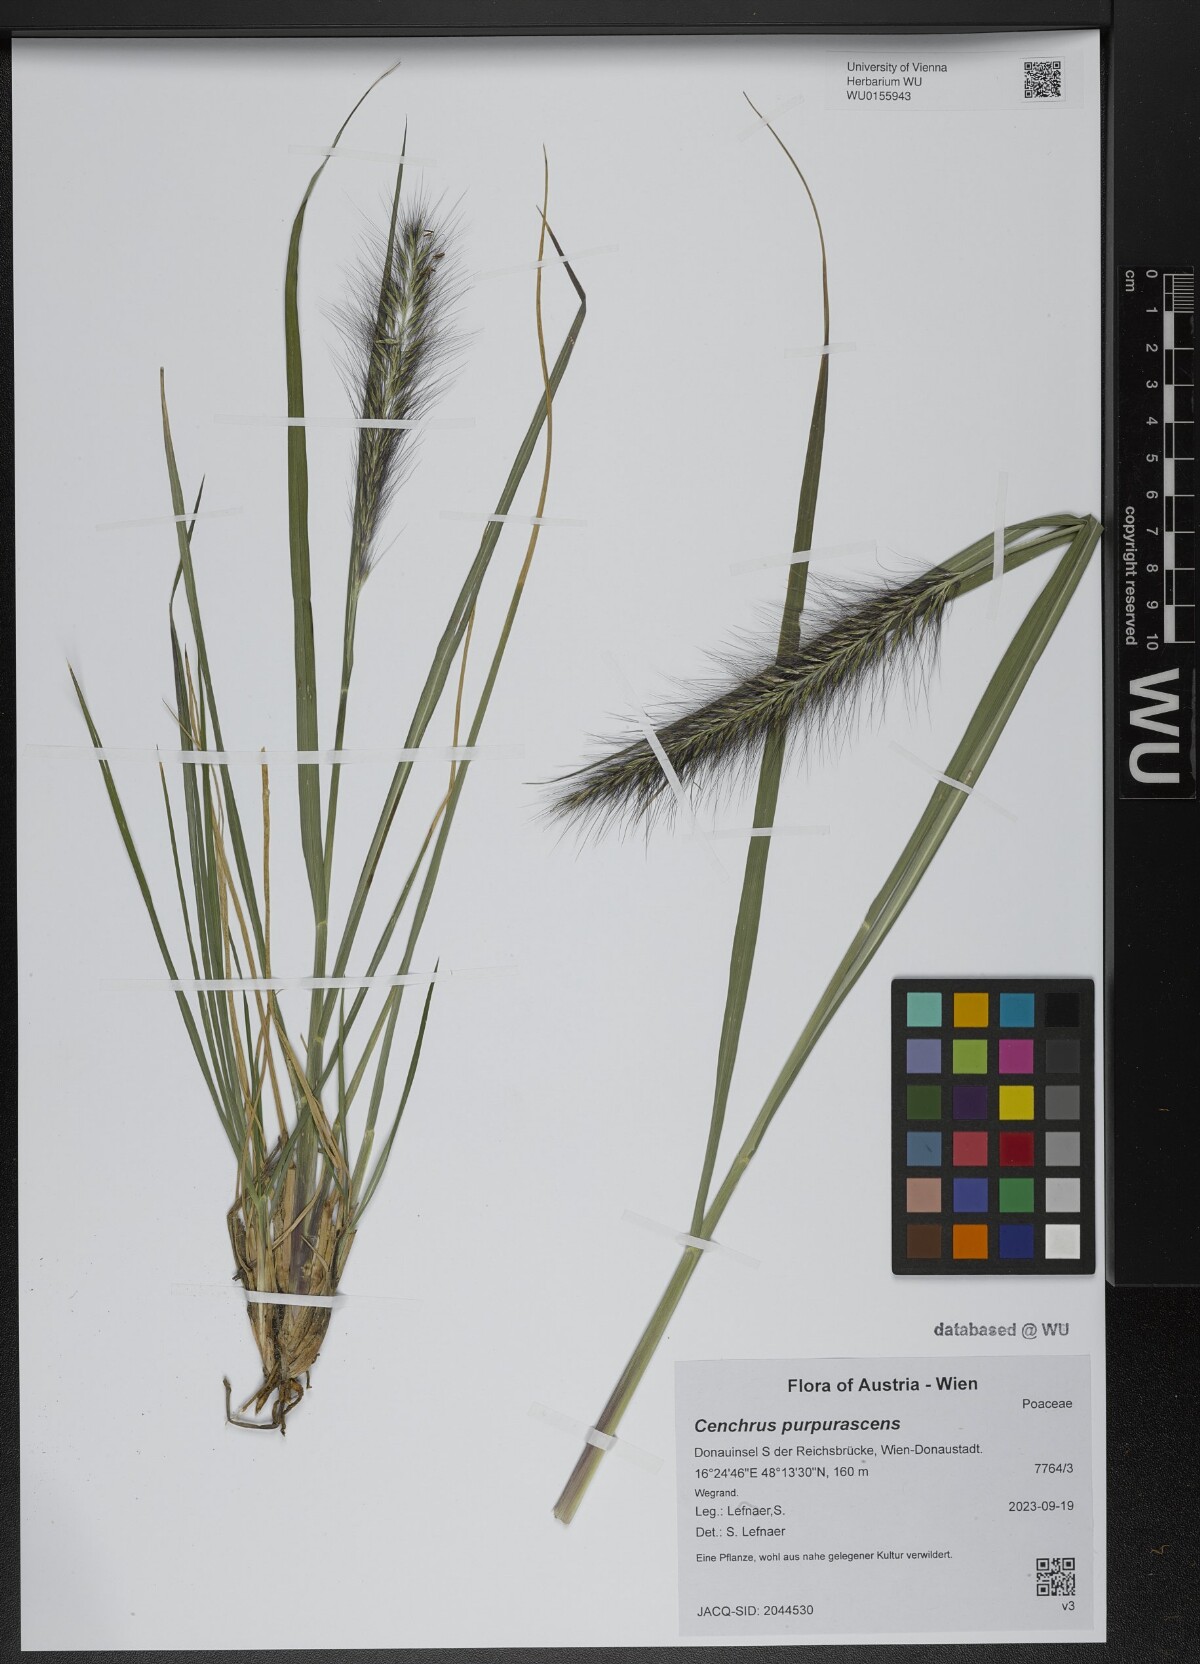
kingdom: Plantae
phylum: Tracheophyta
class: Liliopsida
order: Poales
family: Poaceae
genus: Cenchrus
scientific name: Cenchrus alopecuroides
